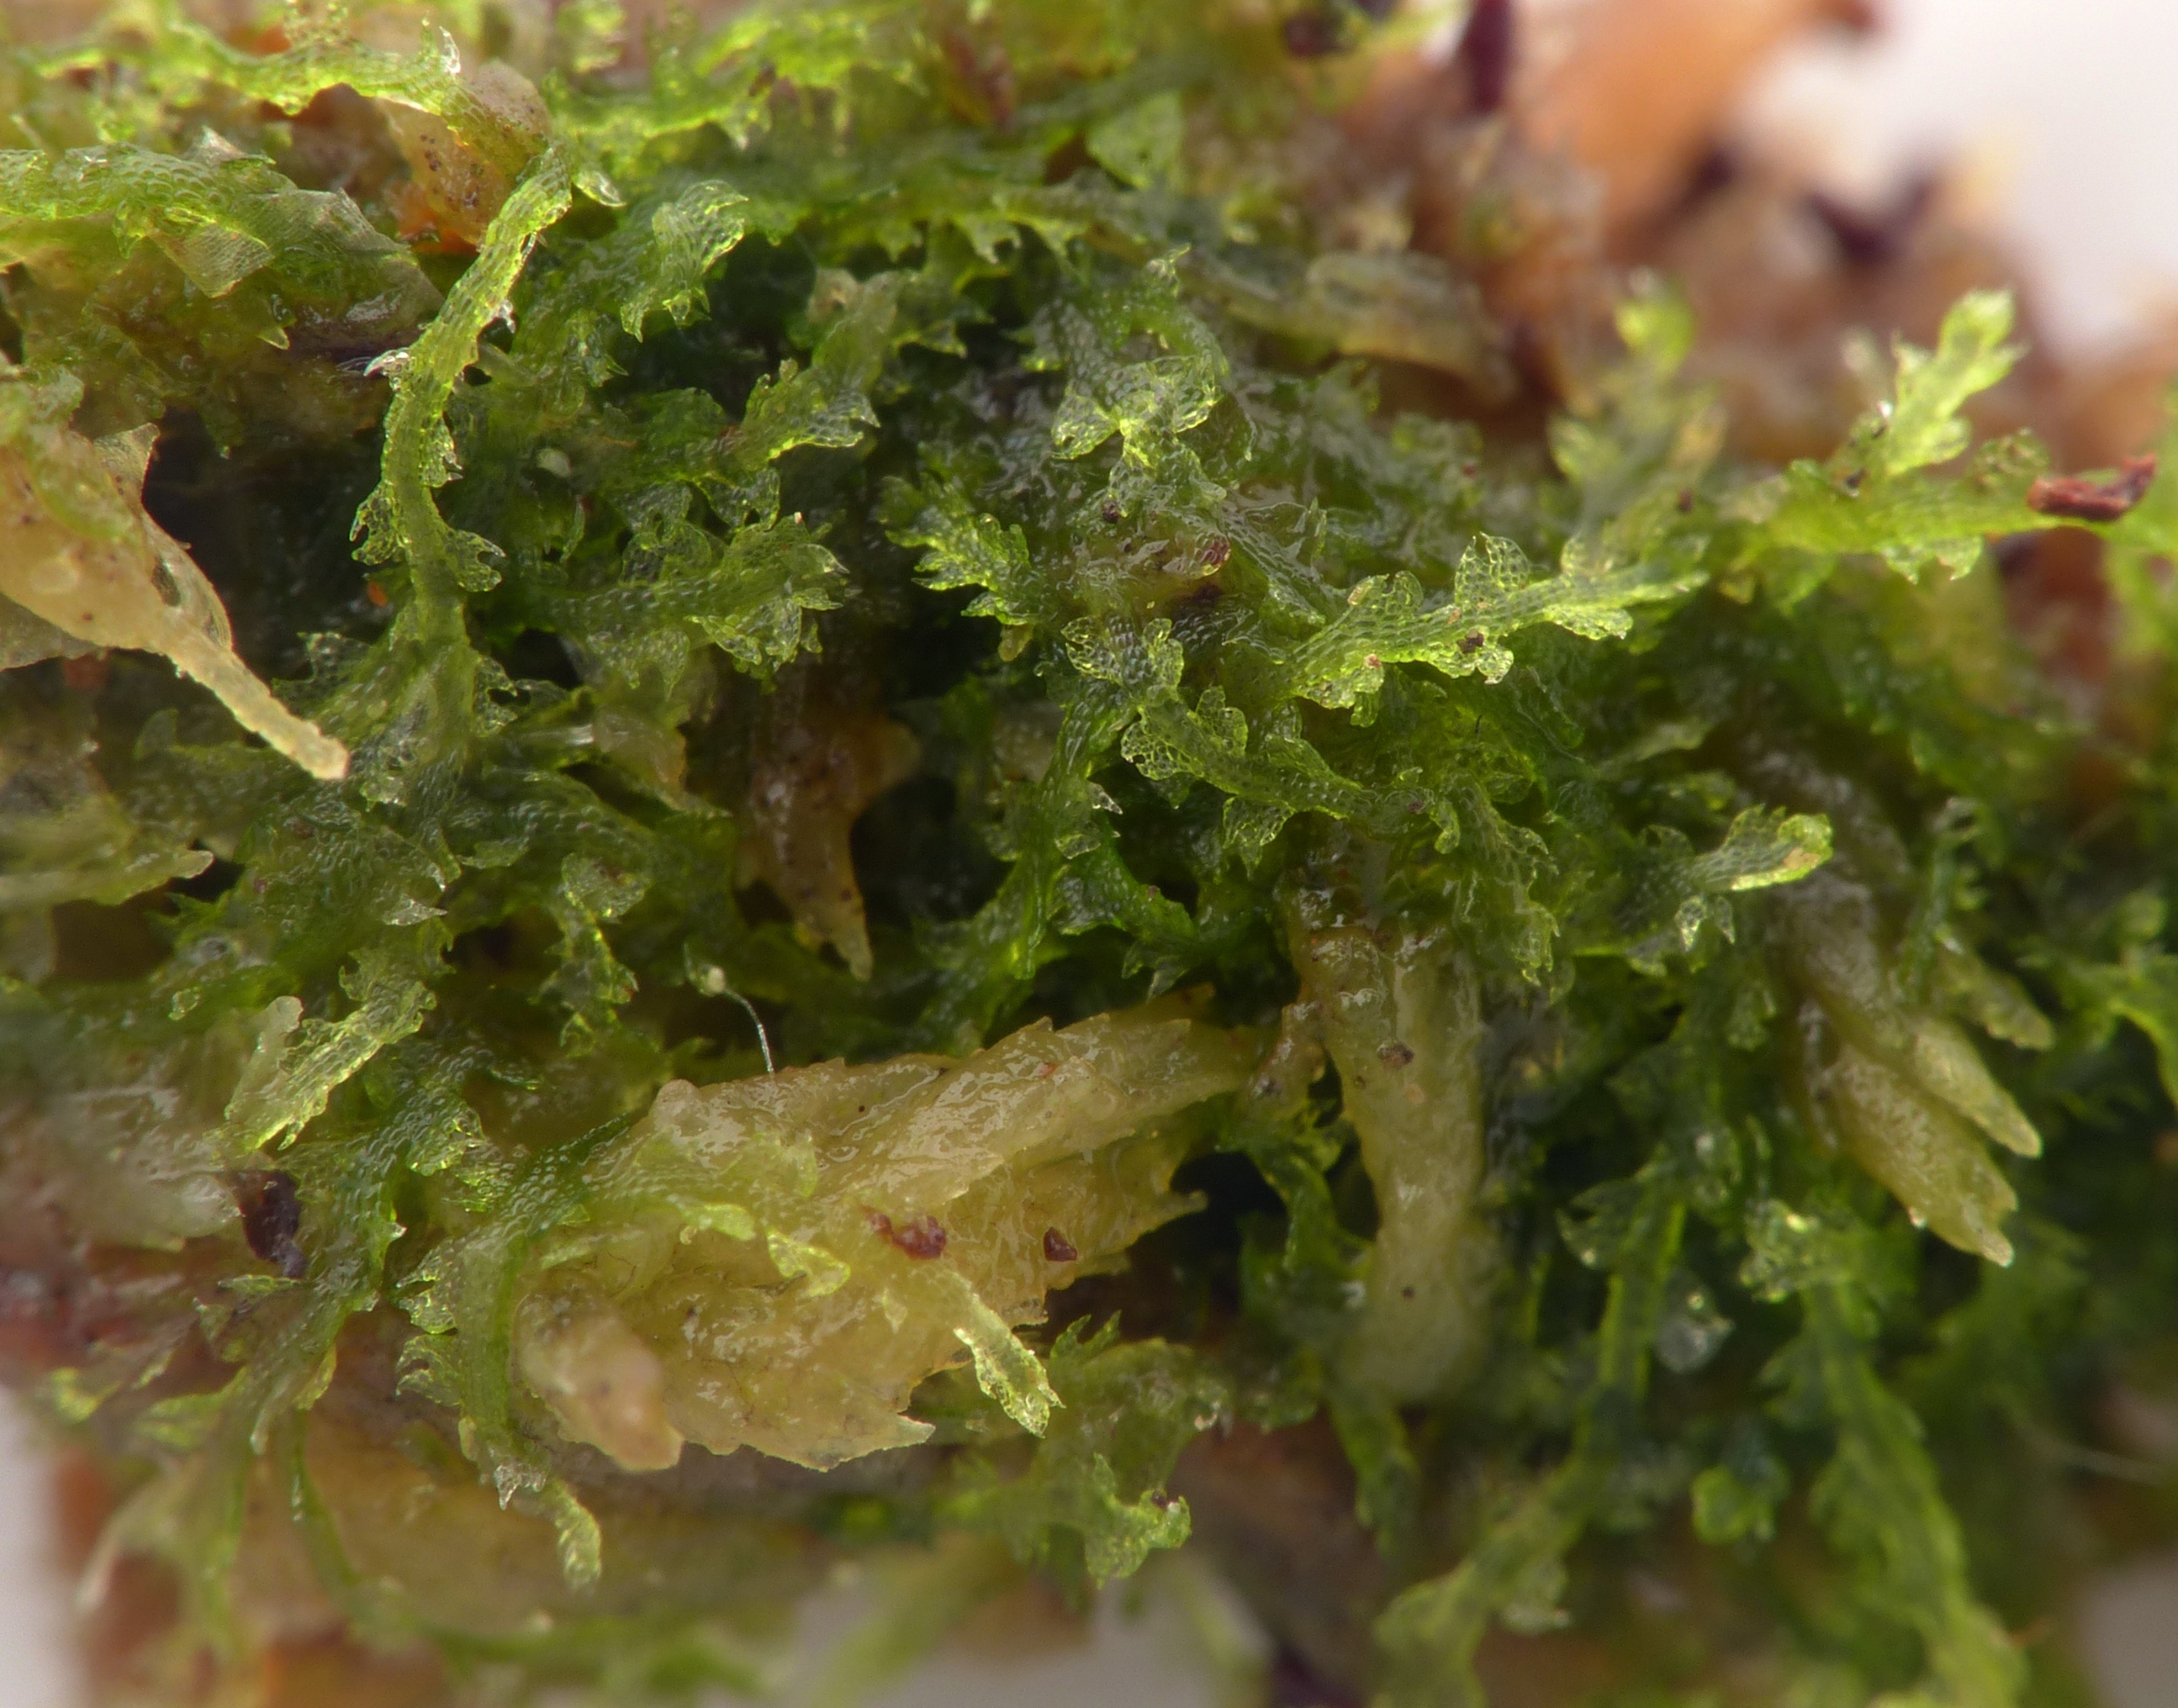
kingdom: Plantae
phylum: Marchantiophyta
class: Jungermanniopsida
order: Jungermanniales
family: Cephaloziaceae
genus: Fuscocephaloziopsis
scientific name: Fuscocephaloziopsis connivens
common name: Flad kantbæger
